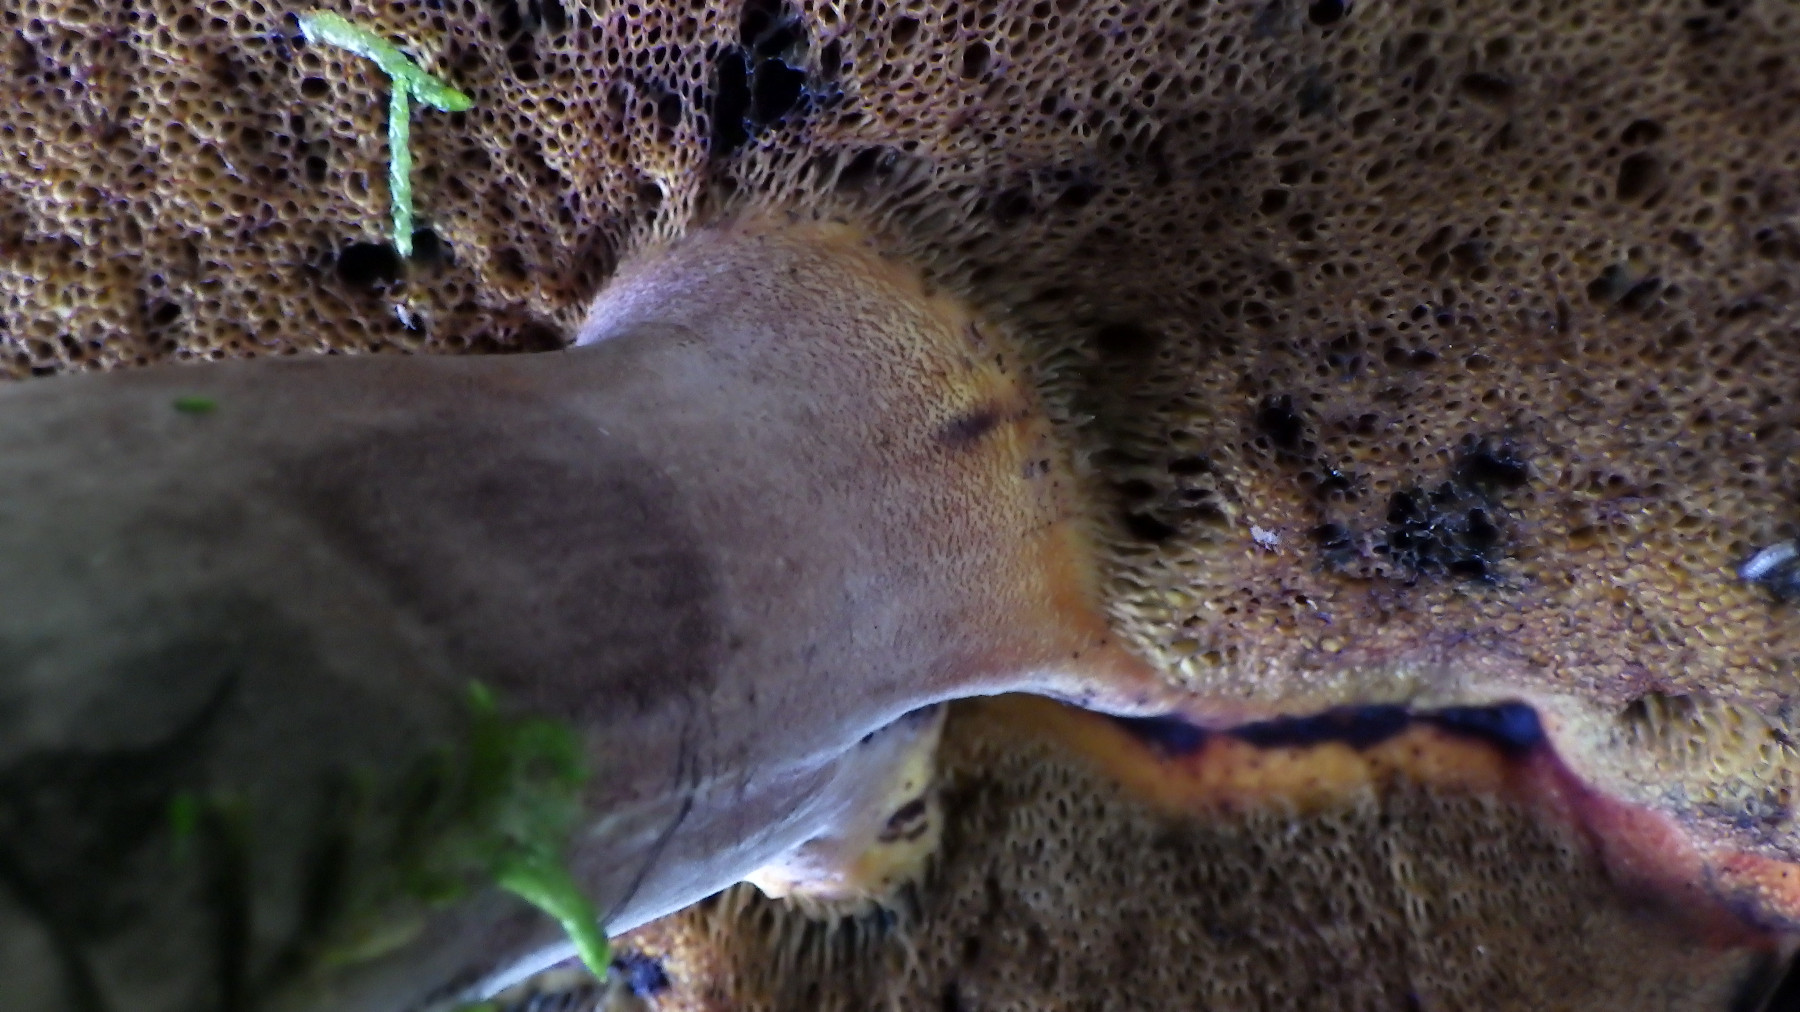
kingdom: Fungi
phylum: Basidiomycota
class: Agaricomycetes
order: Boletales
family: Boletaceae
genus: Neoboletus
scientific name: Neoboletus erythropus
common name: punktstokket indigorørhat
